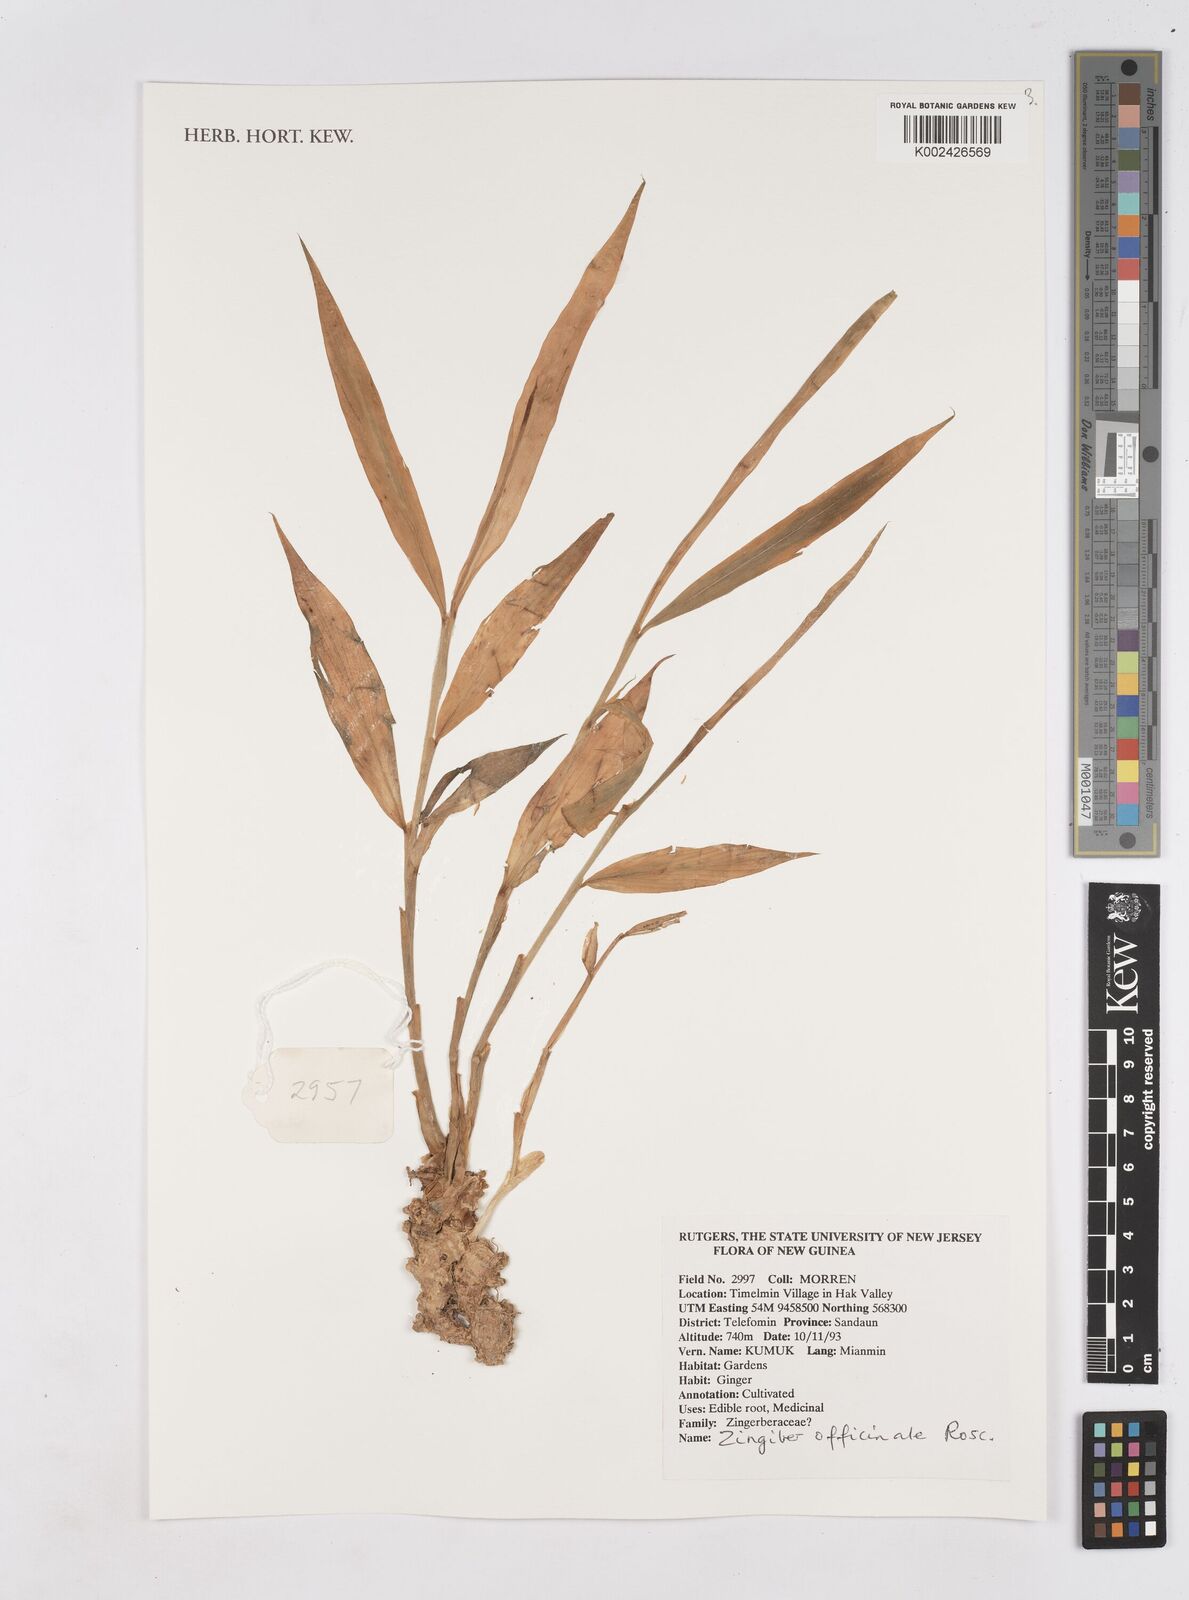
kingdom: Plantae
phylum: Tracheophyta
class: Liliopsida
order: Zingiberales
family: Zingiberaceae
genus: Riedelia
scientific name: Riedelia
